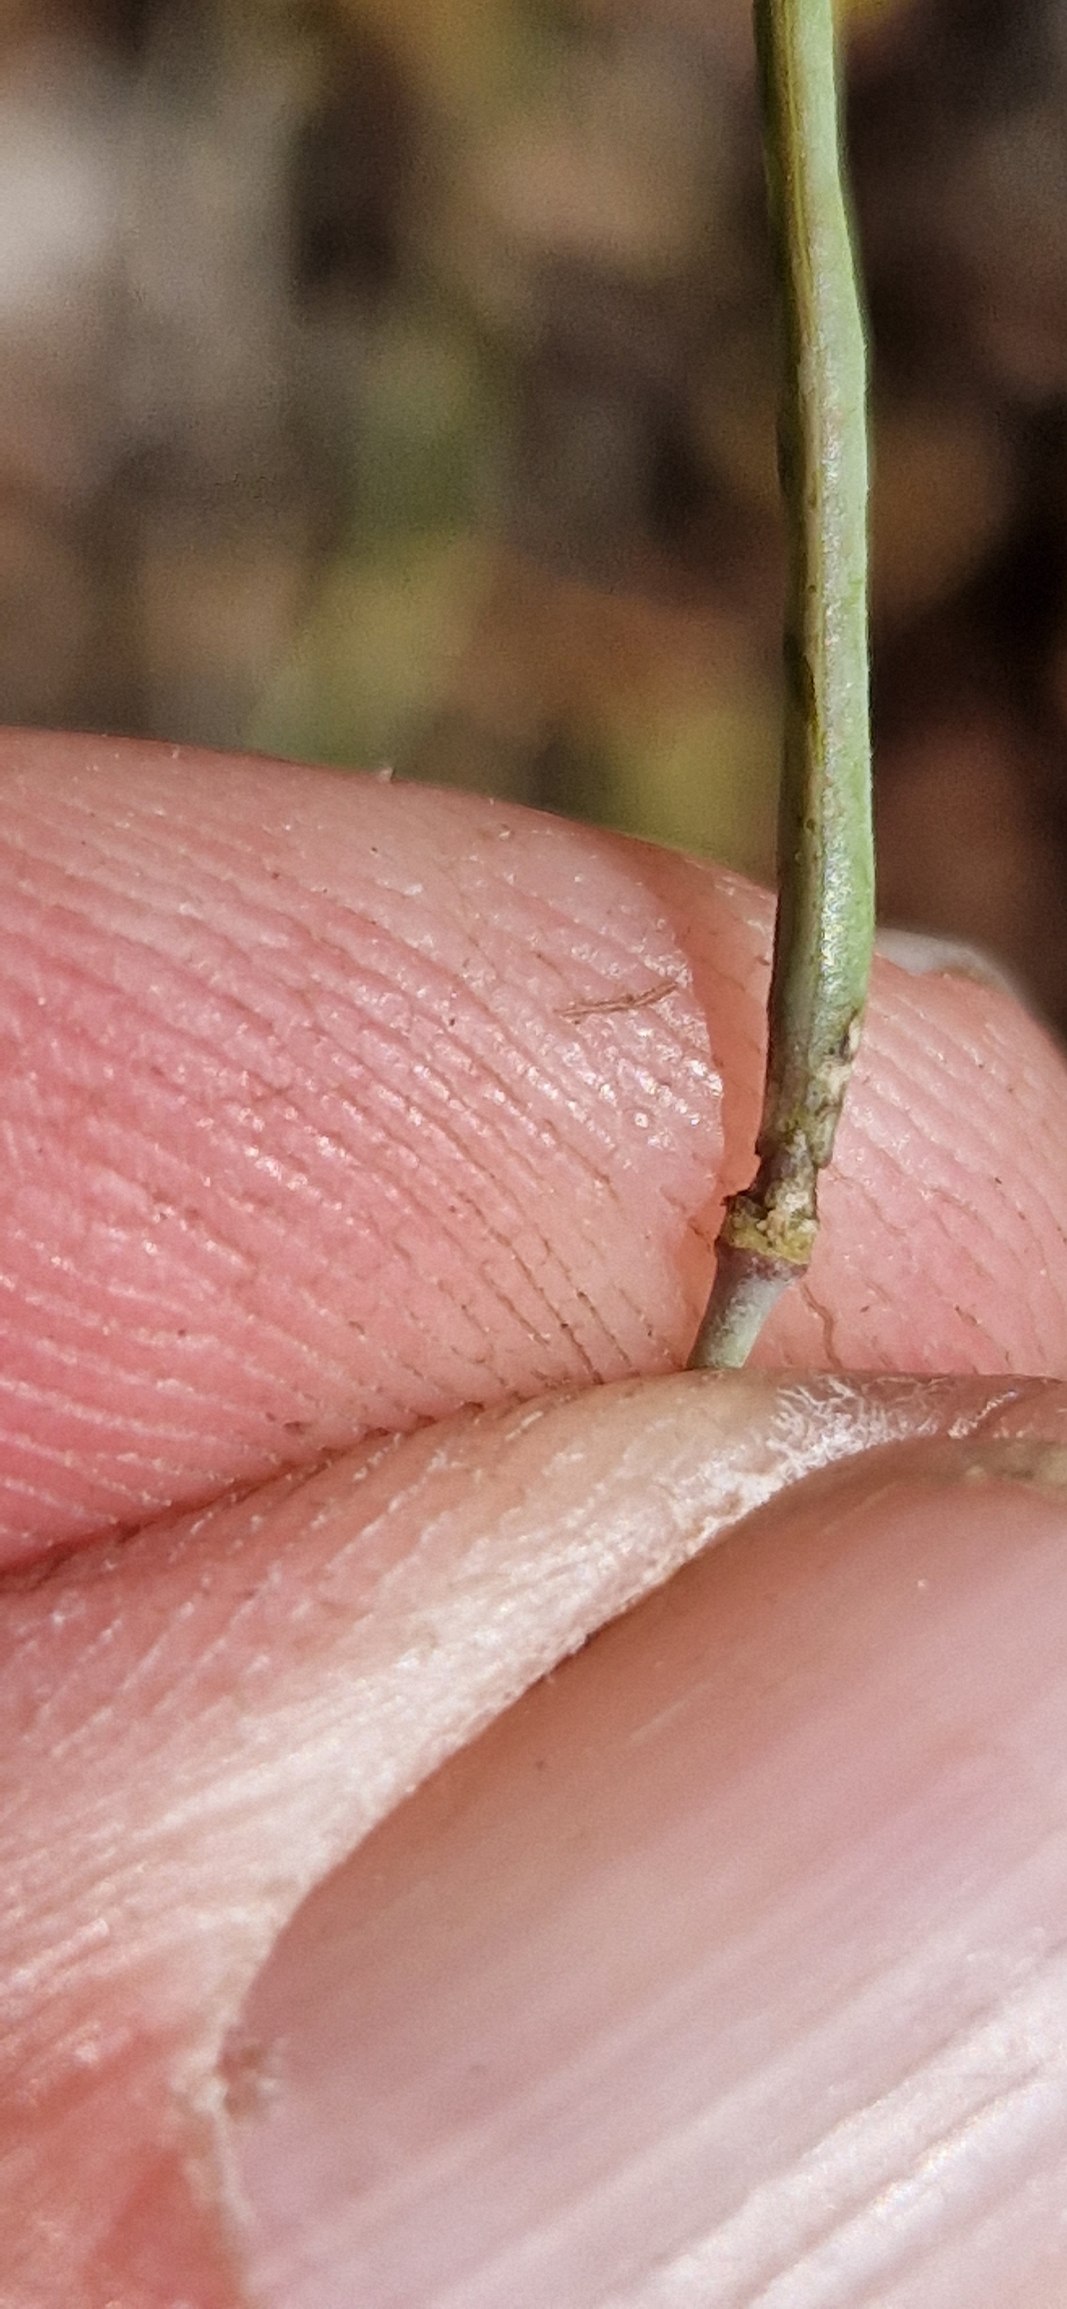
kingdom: Plantae
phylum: Tracheophyta
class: Magnoliopsida
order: Brassicales
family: Brassicaceae
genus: Diplotaxis
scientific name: Diplotaxis tenuifolia
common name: Sandsennep
